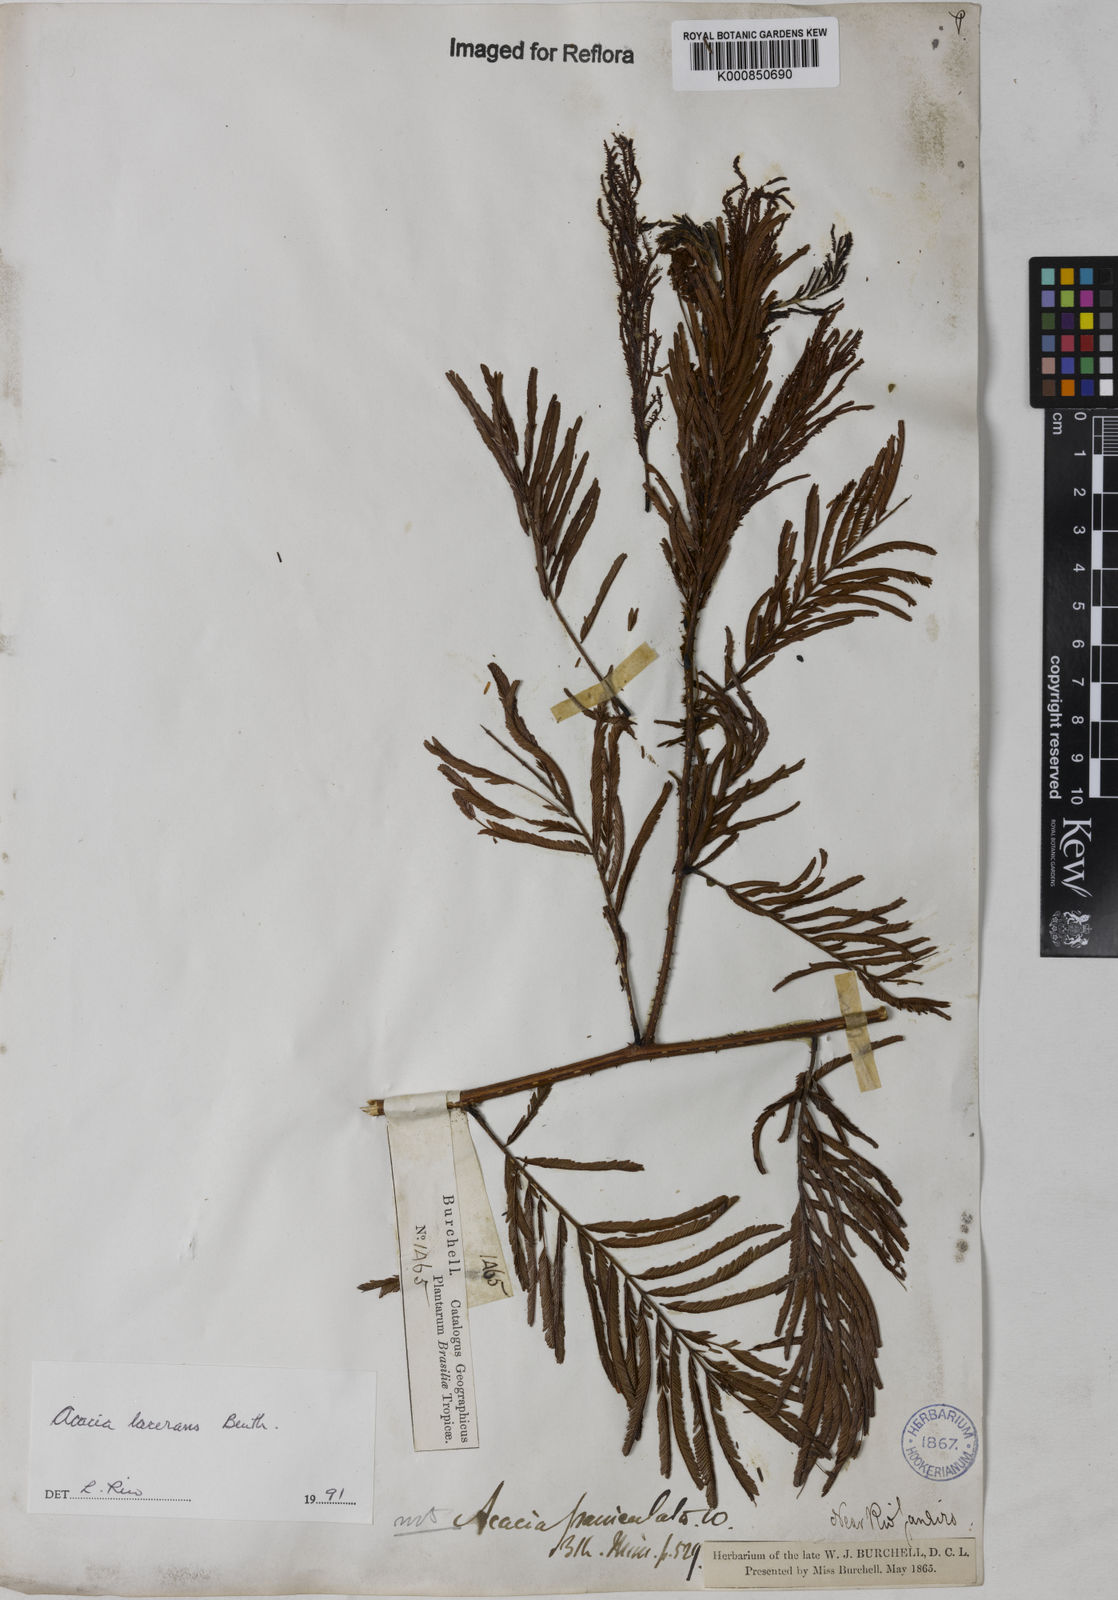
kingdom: Plantae
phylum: Tracheophyta
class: Magnoliopsida
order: Fabales
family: Fabaceae
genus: Senegalia
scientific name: Senegalia lacerans
